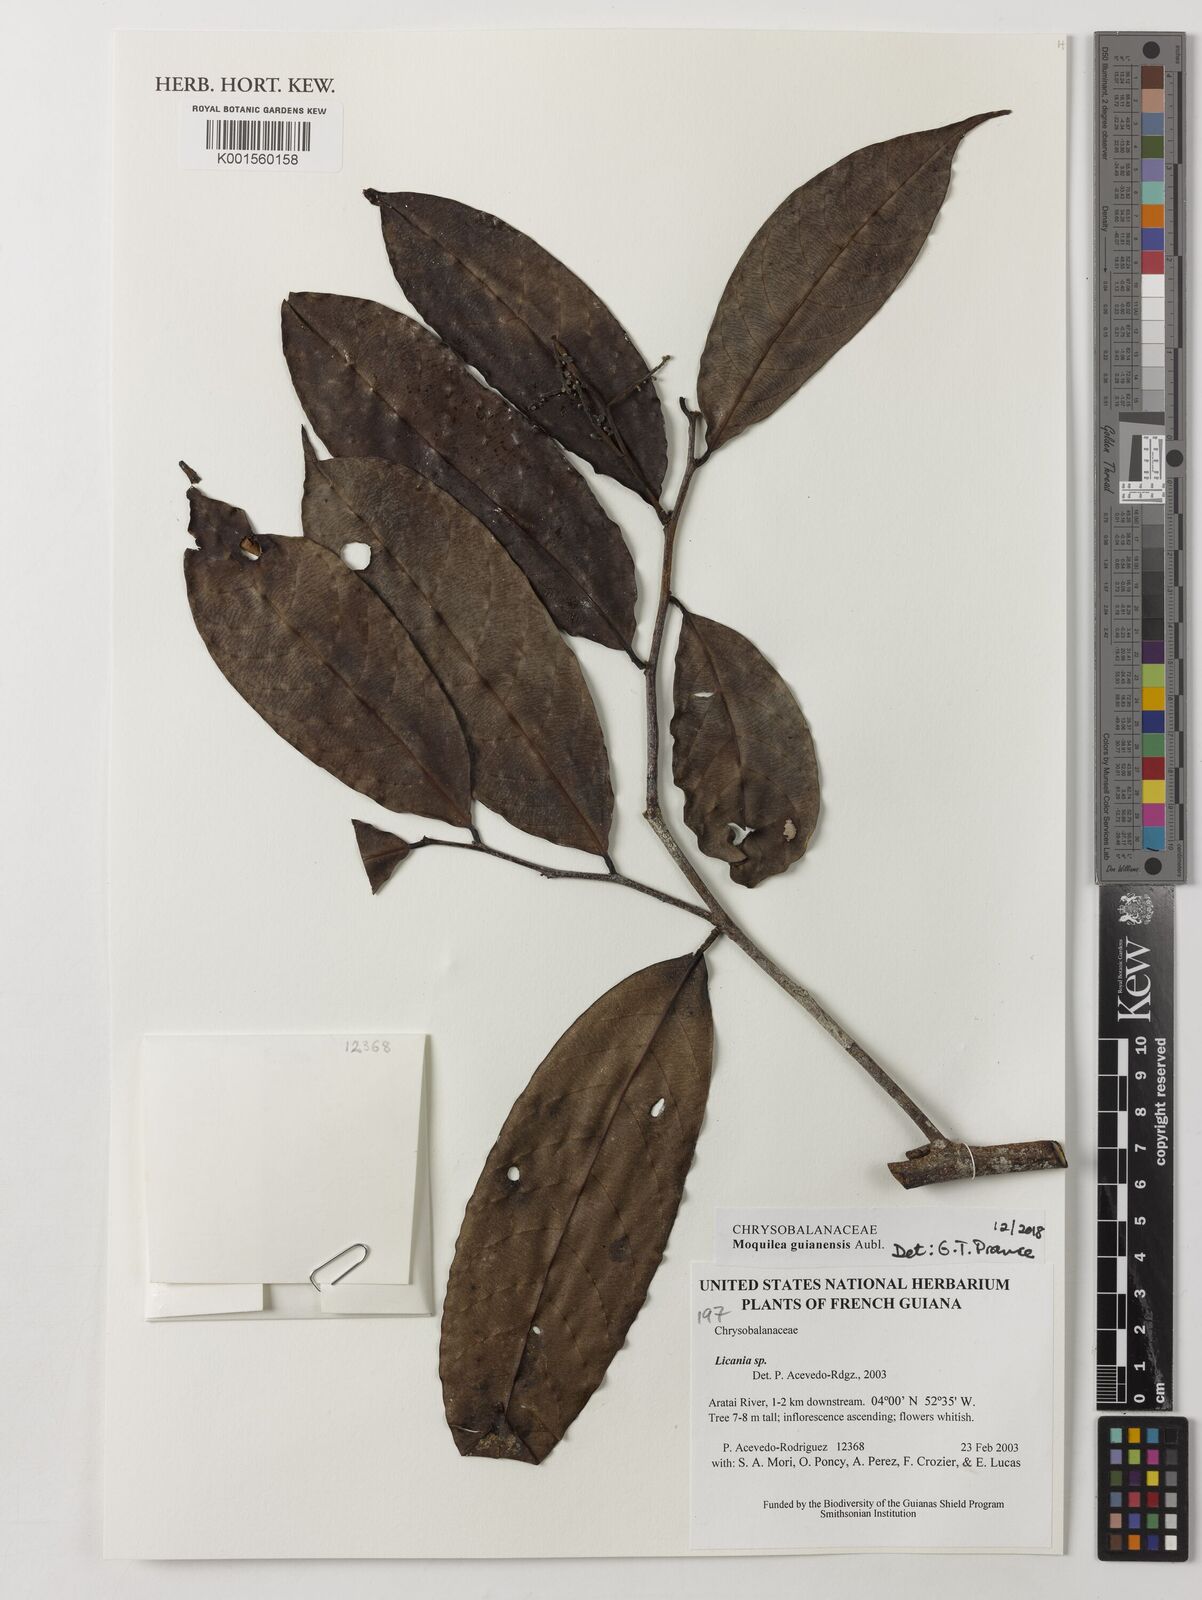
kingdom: Plantae
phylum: Tracheophyta
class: Magnoliopsida
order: Malpighiales
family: Chrysobalanaceae
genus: Moquilea
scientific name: Moquilea guianensis
